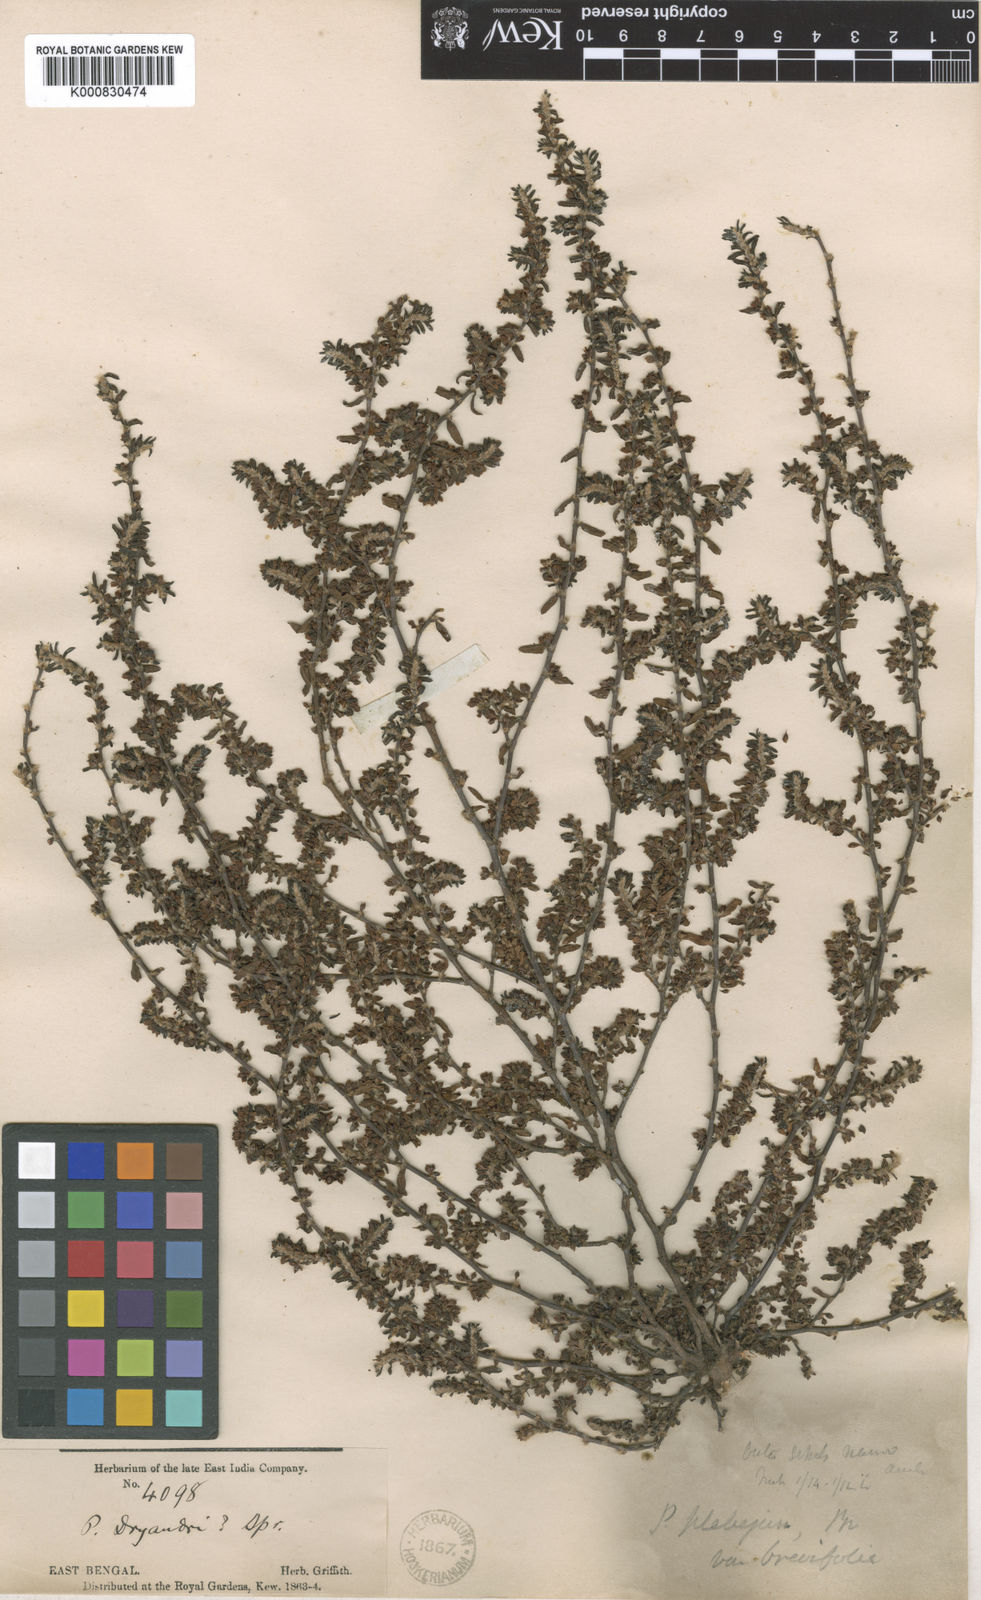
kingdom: Plantae
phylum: Tracheophyta
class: Magnoliopsida
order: Caryophyllales
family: Polygonaceae
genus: Polygonum
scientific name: Polygonum plebeium
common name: Common knotweed
